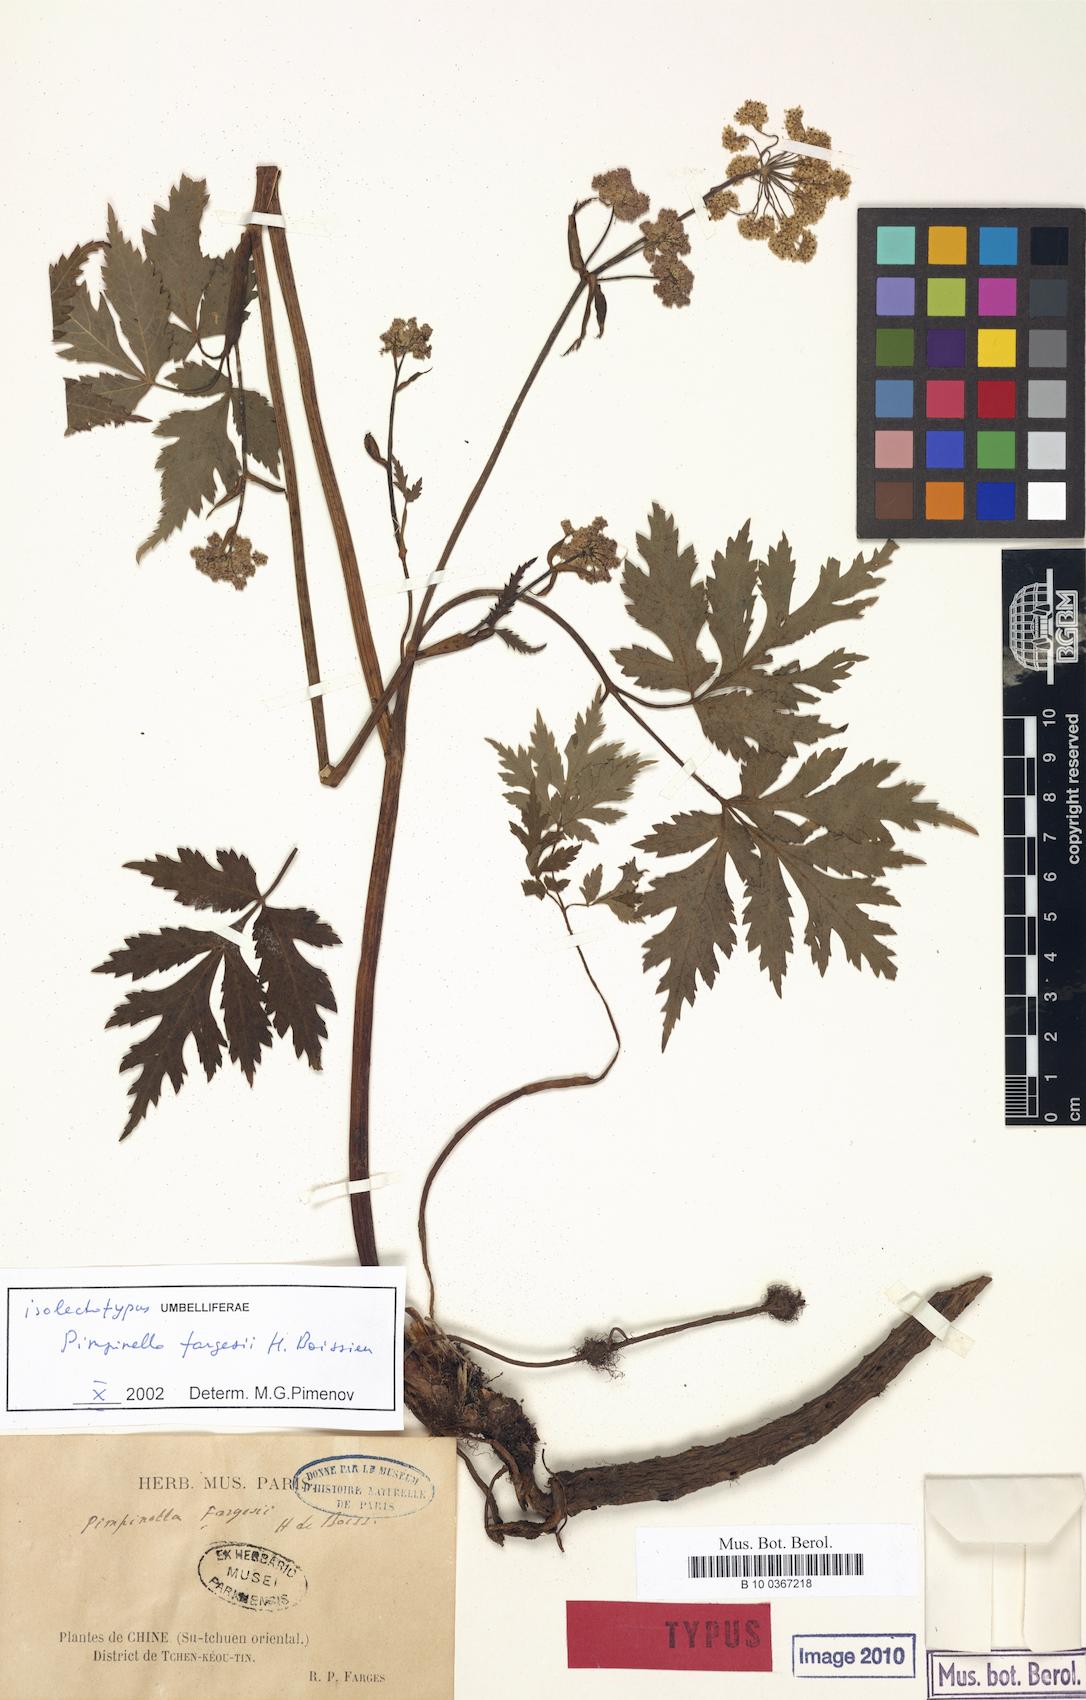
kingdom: Plantae
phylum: Tracheophyta
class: Magnoliopsida
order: Apiales
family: Apiaceae
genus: Pimpinella
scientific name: Pimpinella fargesii
